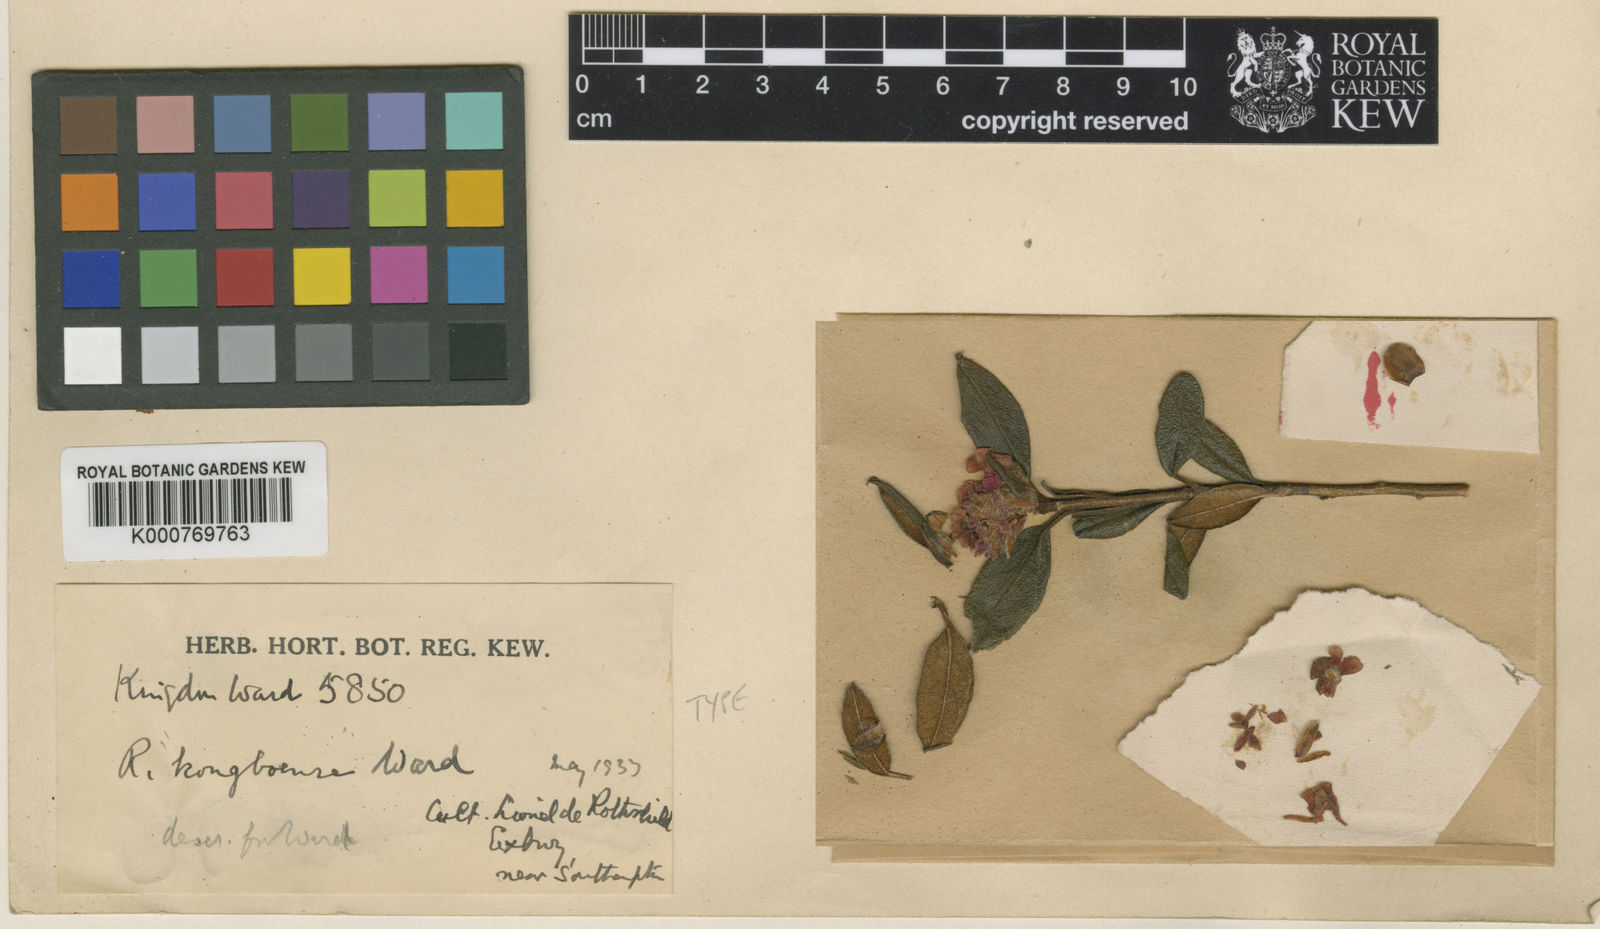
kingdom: Plantae
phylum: Tracheophyta
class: Magnoliopsida
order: Ericales
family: Ericaceae
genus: Rhododendron
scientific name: Rhododendron
